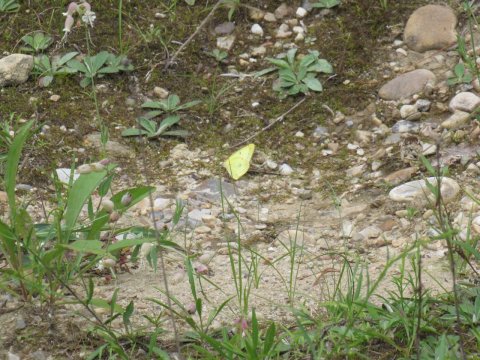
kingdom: Animalia
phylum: Arthropoda
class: Insecta
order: Lepidoptera
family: Pieridae
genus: Colias
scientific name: Colias philodice
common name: Clouded Sulphur
